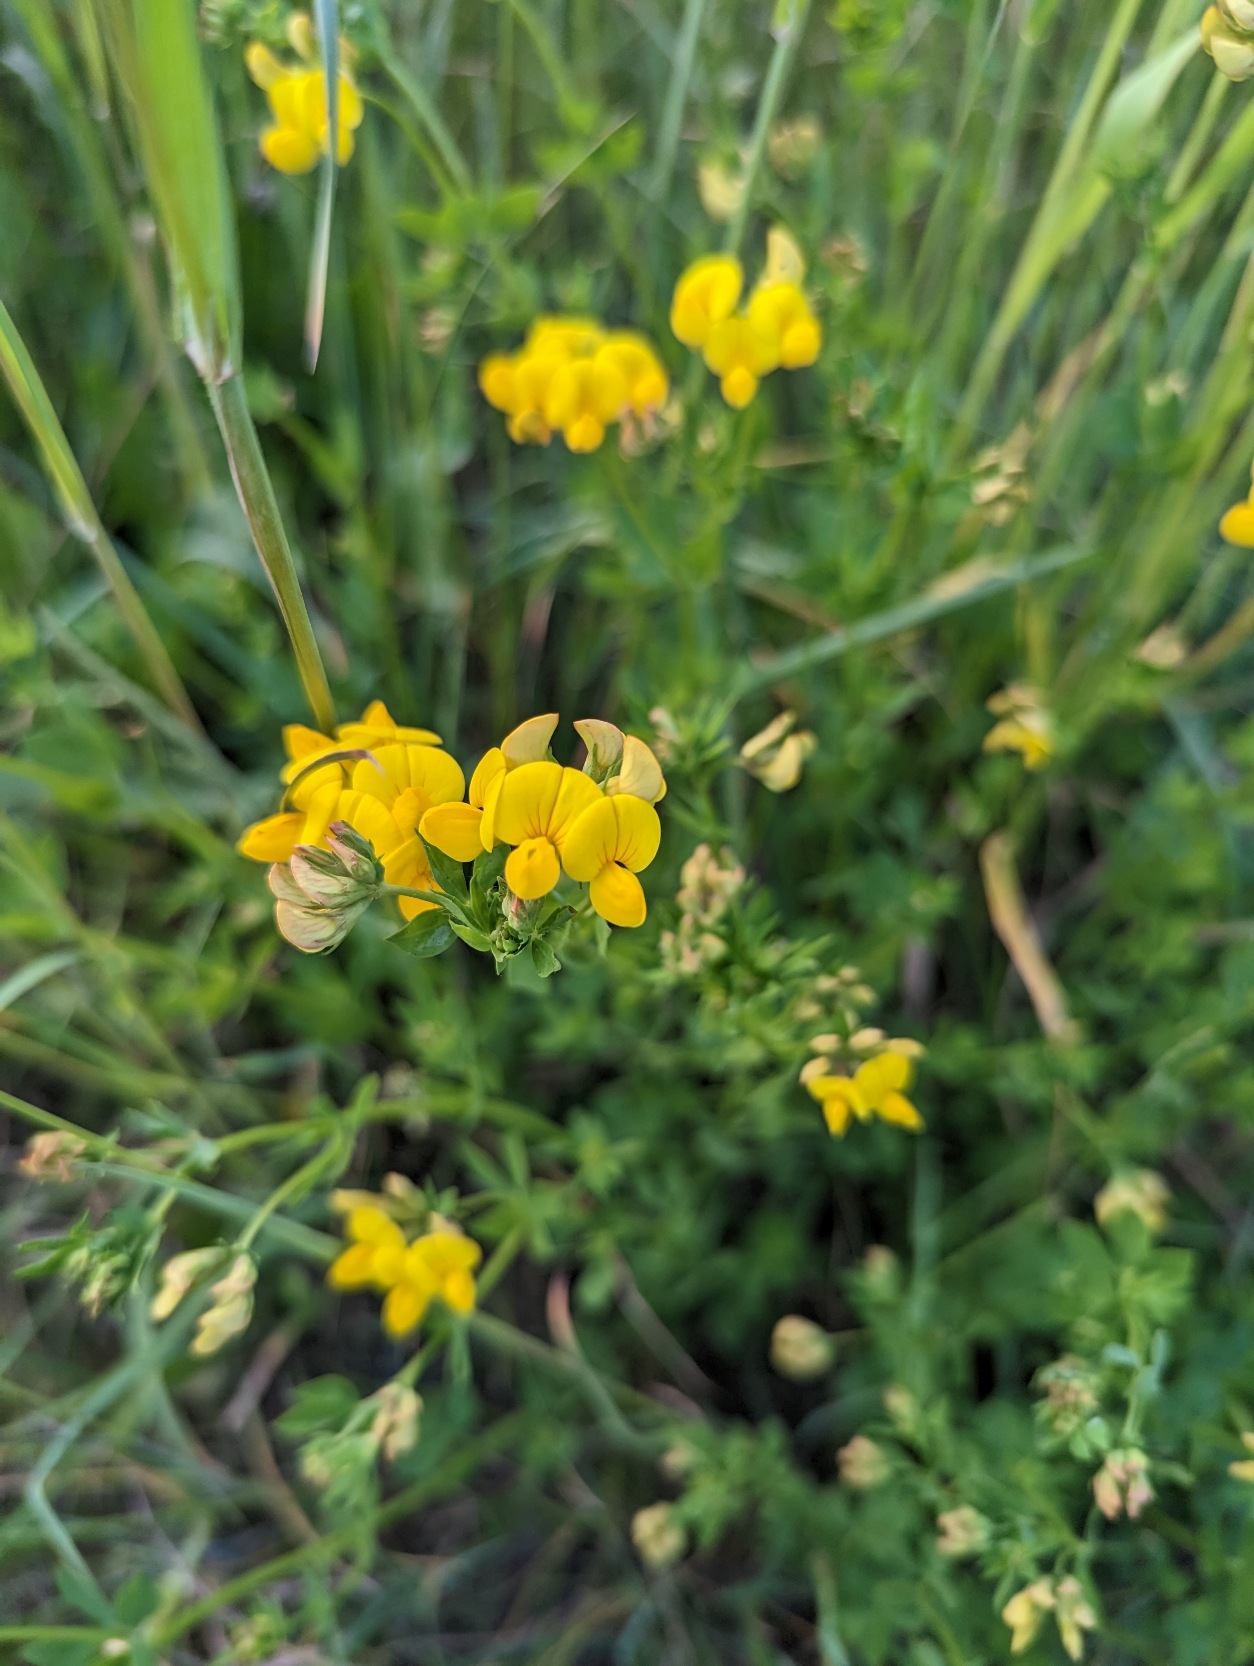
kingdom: Plantae
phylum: Tracheophyta
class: Magnoliopsida
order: Fabales
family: Fabaceae
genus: Lotus
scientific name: Lotus corniculatus
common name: Almindelig kællingetand
